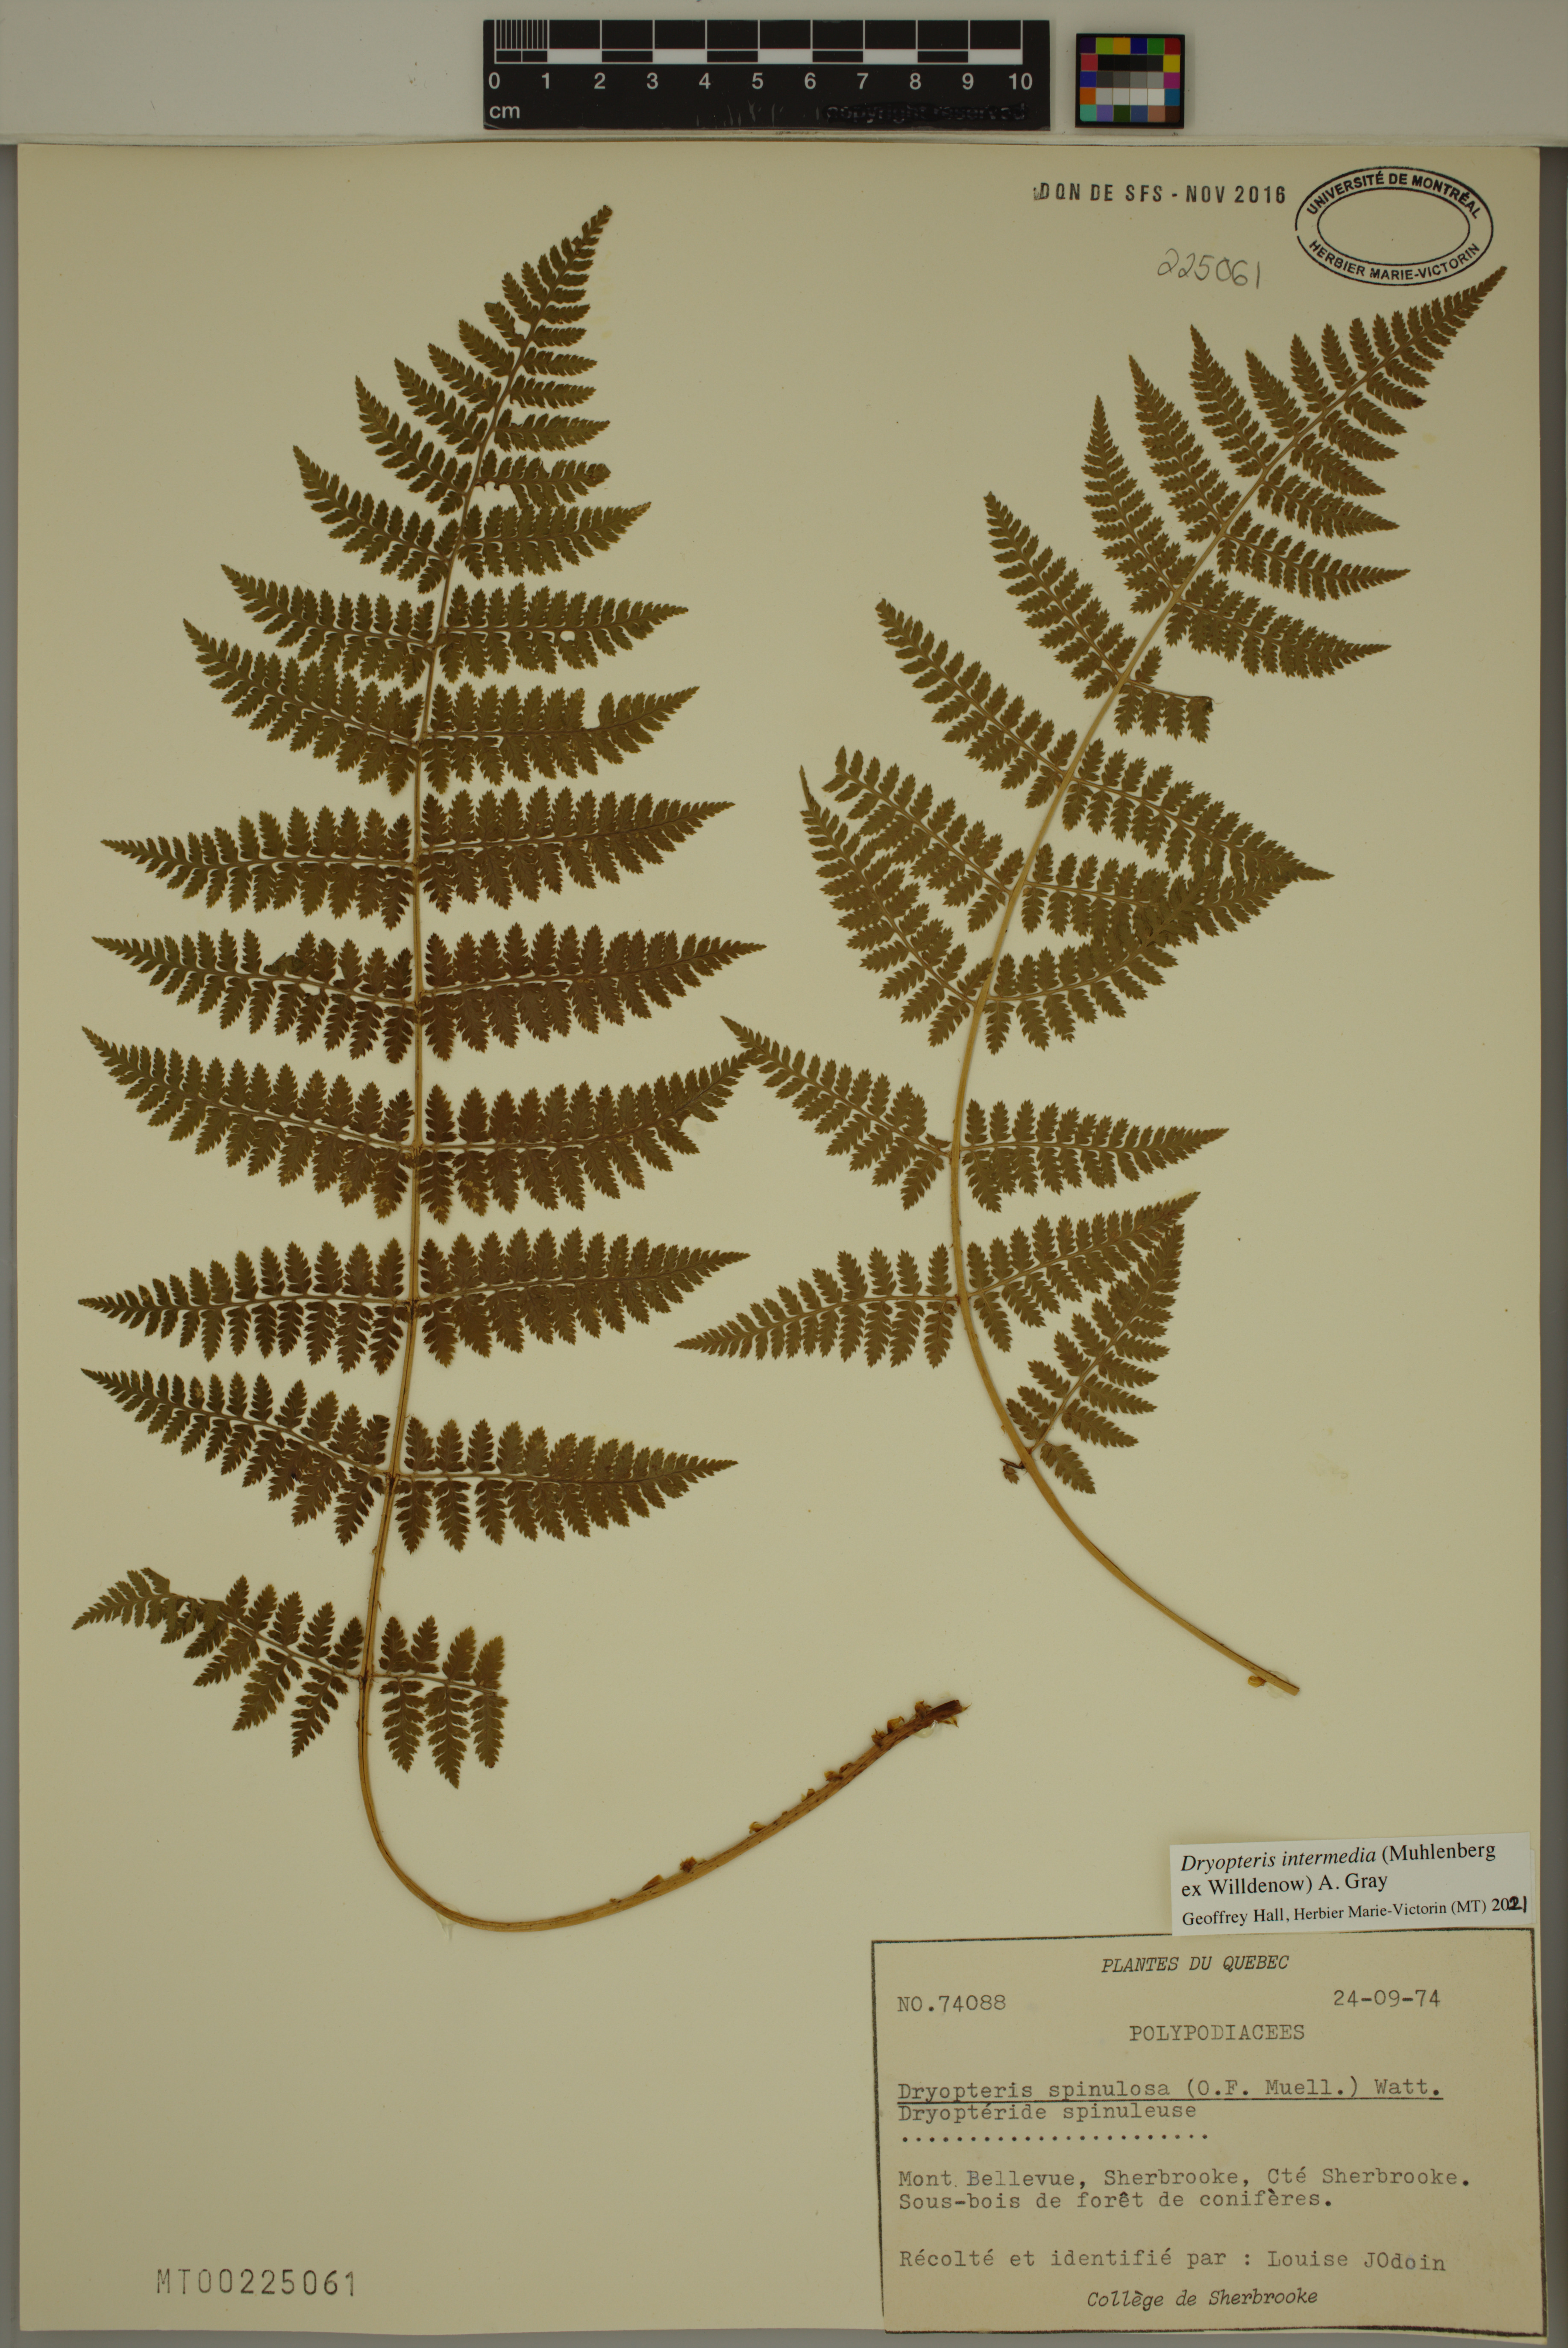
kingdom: Plantae
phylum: Tracheophyta
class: Polypodiopsida
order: Polypodiales
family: Dryopteridaceae
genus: Dryopteris
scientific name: Dryopteris intermedia
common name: Evergreen wood fern
